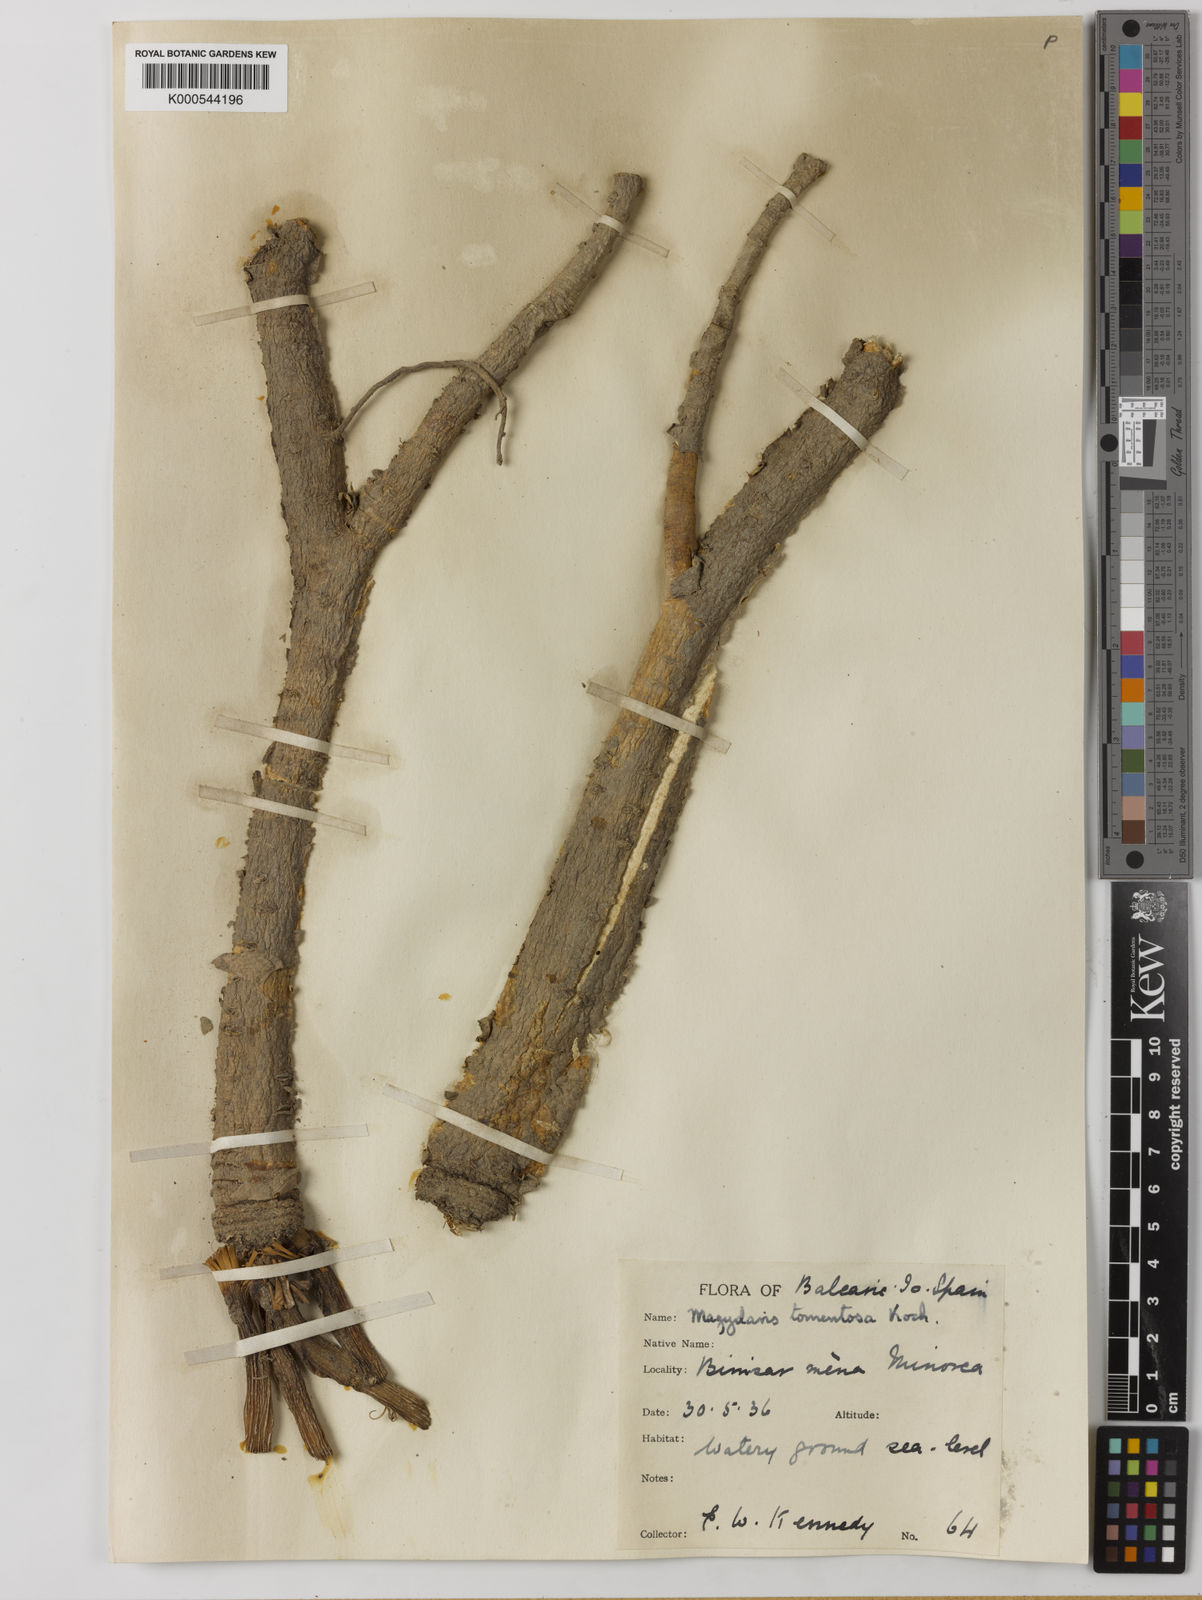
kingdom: Plantae
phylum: Tracheophyta
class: Magnoliopsida
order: Apiales
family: Apiaceae
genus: Magydaris
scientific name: Magydaris pastinacea
